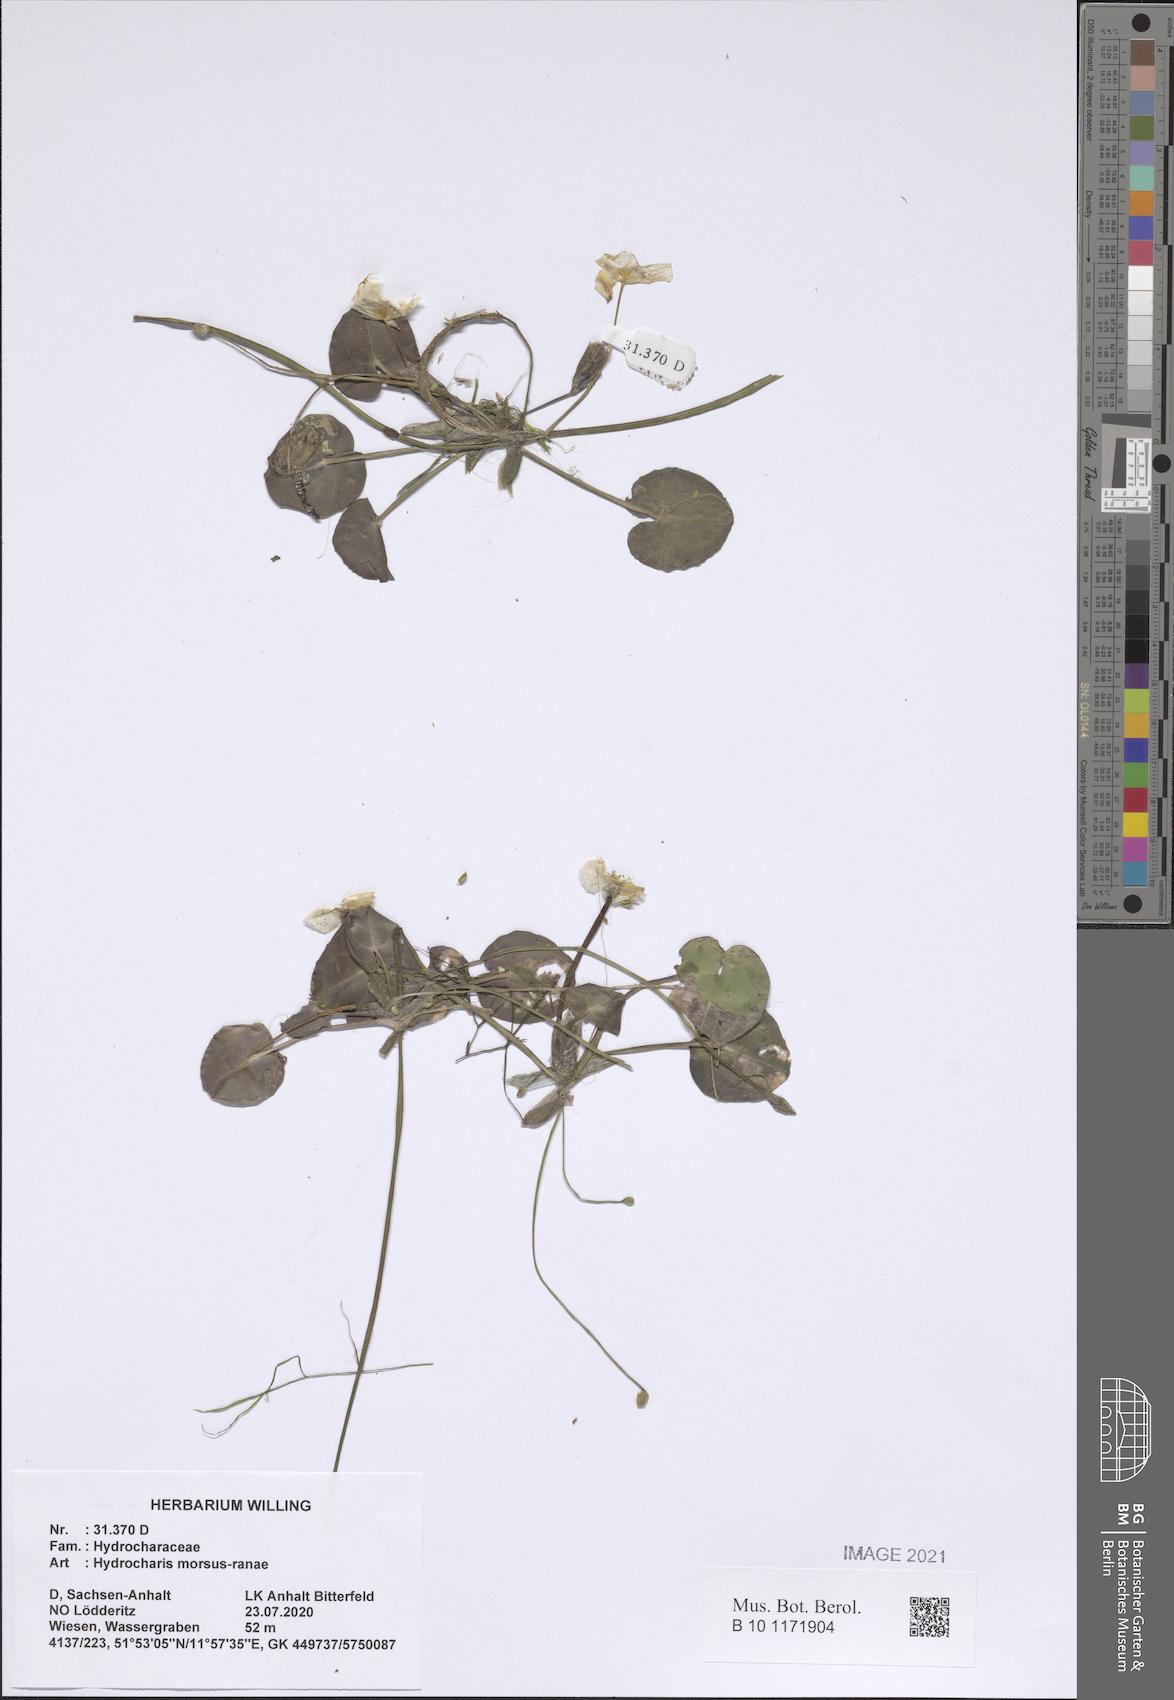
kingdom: Plantae
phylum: Tracheophyta
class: Liliopsida
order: Alismatales
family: Hydrocharitaceae
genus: Hydrocharis
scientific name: Hydrocharis morsus-ranae
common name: Frogbit
